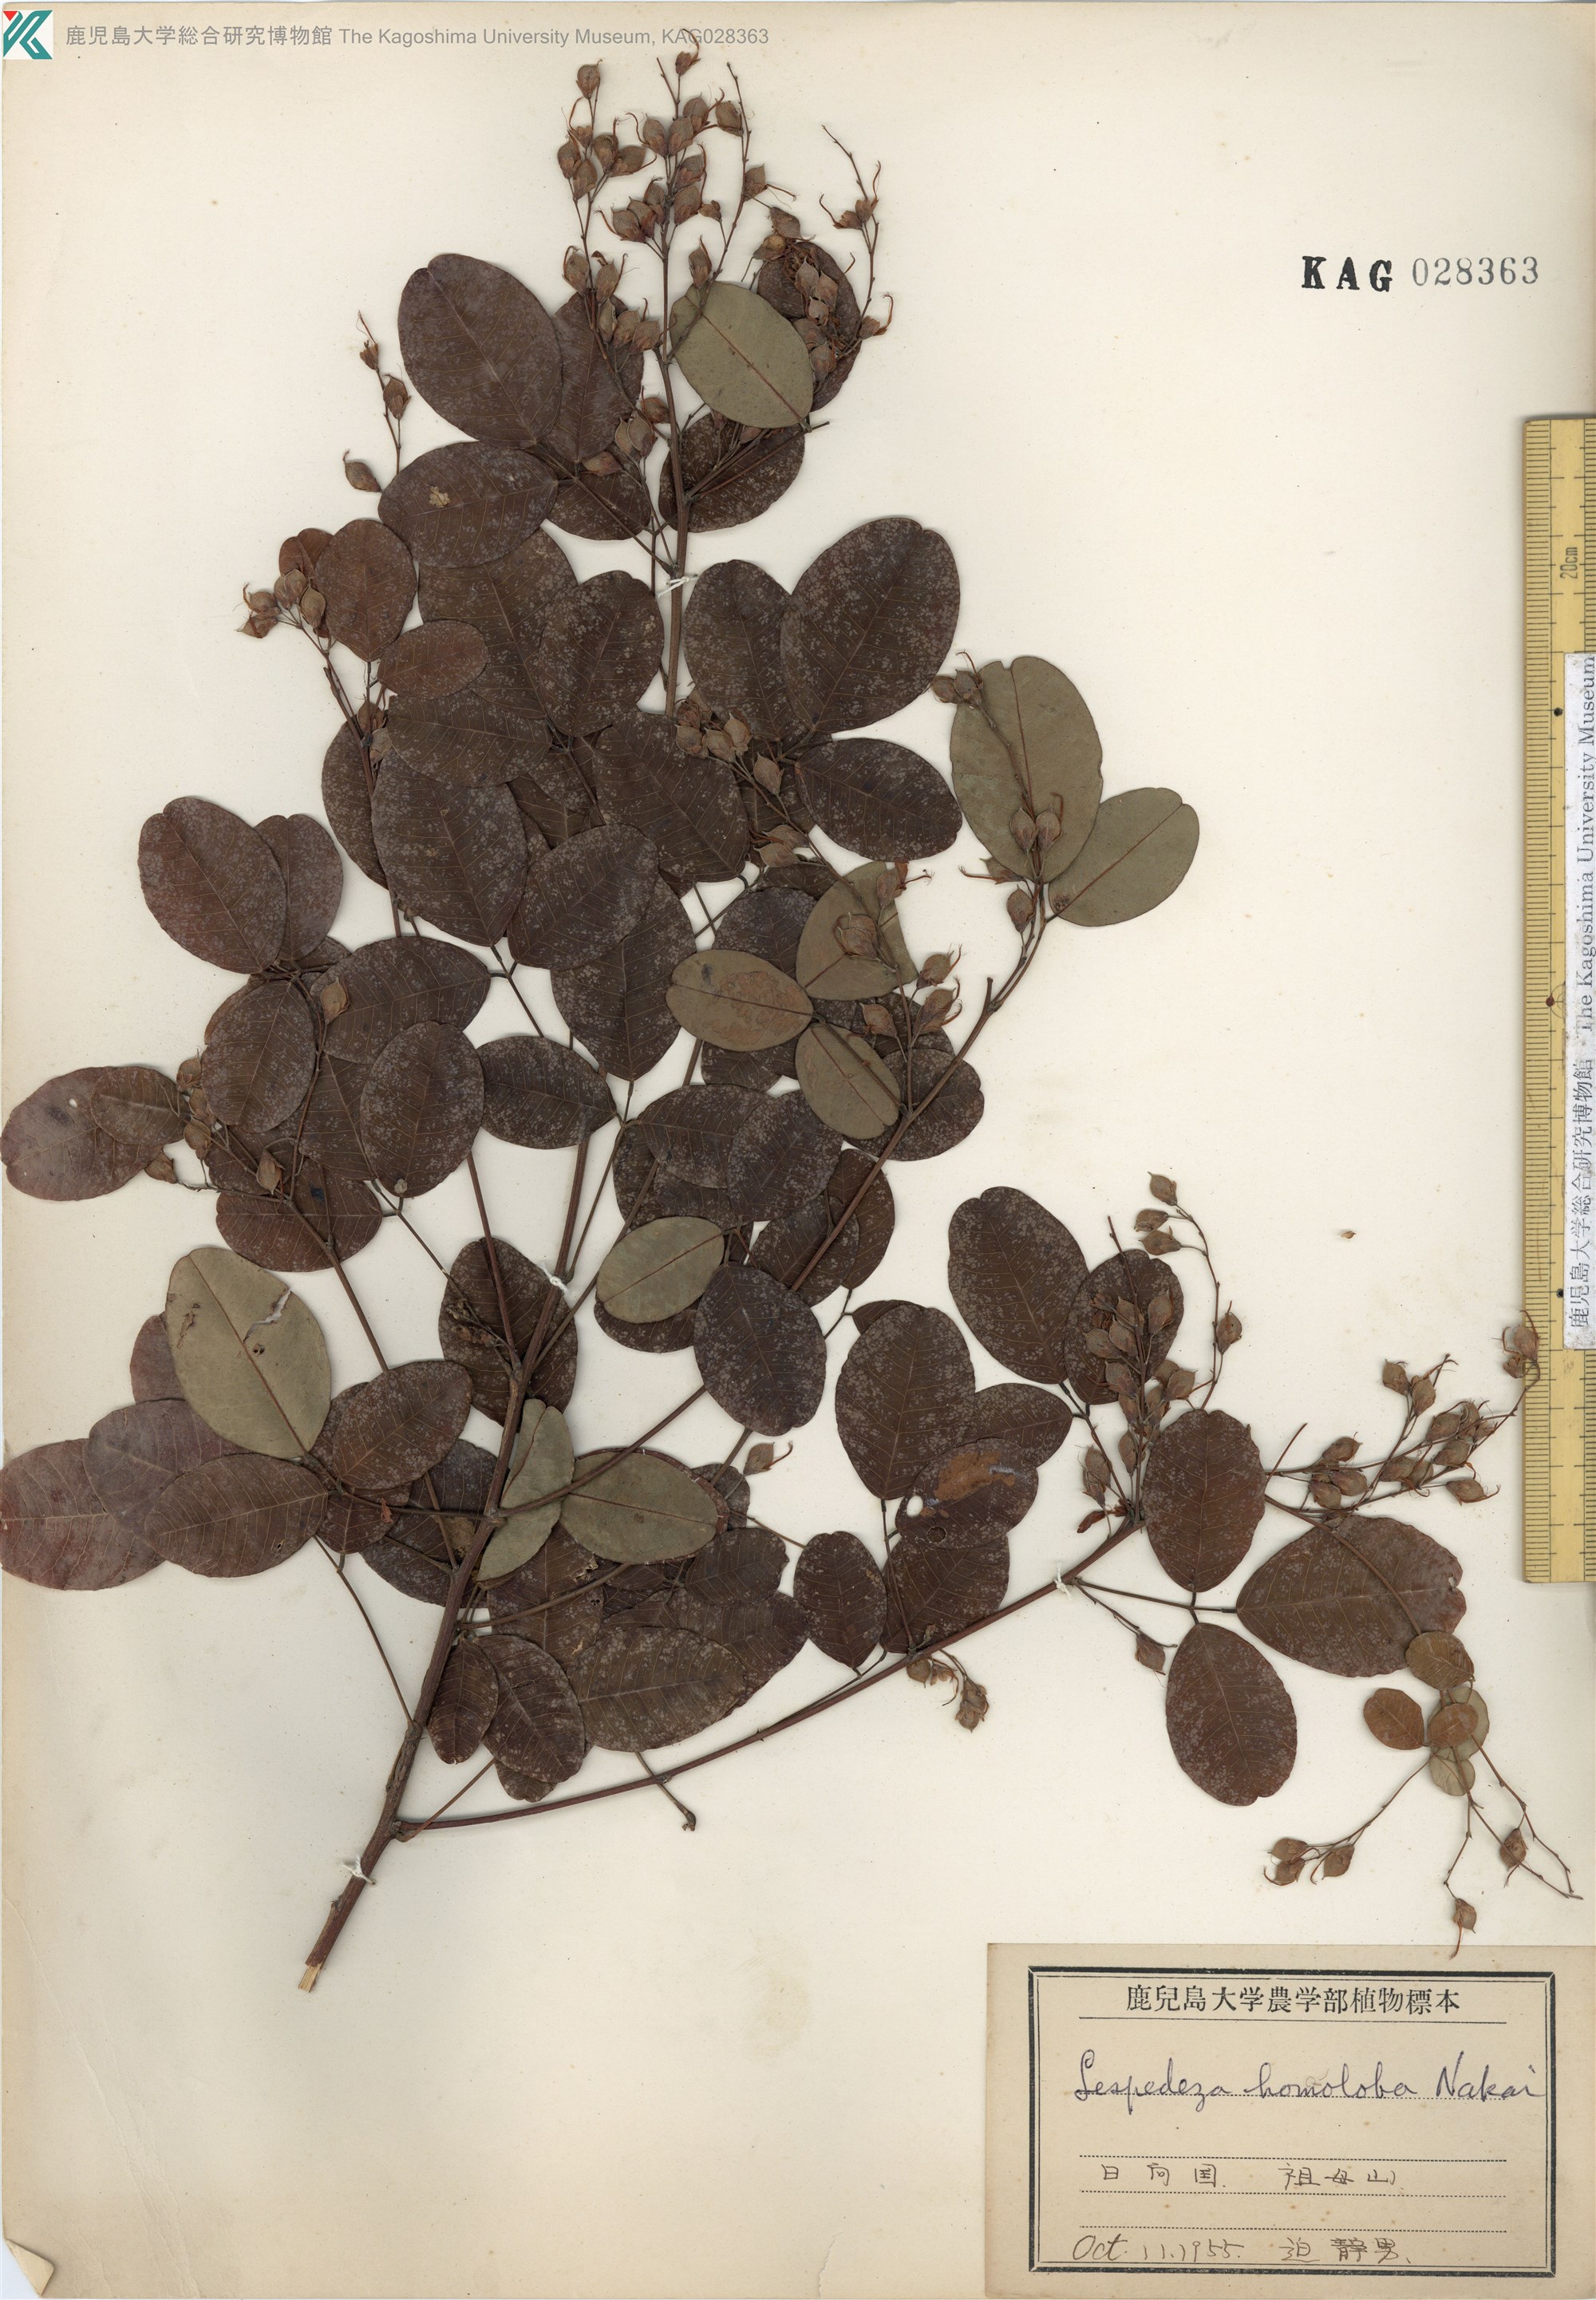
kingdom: Plantae
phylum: Tracheophyta
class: Magnoliopsida
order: Fabales
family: Fabaceae
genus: Lespedeza
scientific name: Lespedeza homoloba
